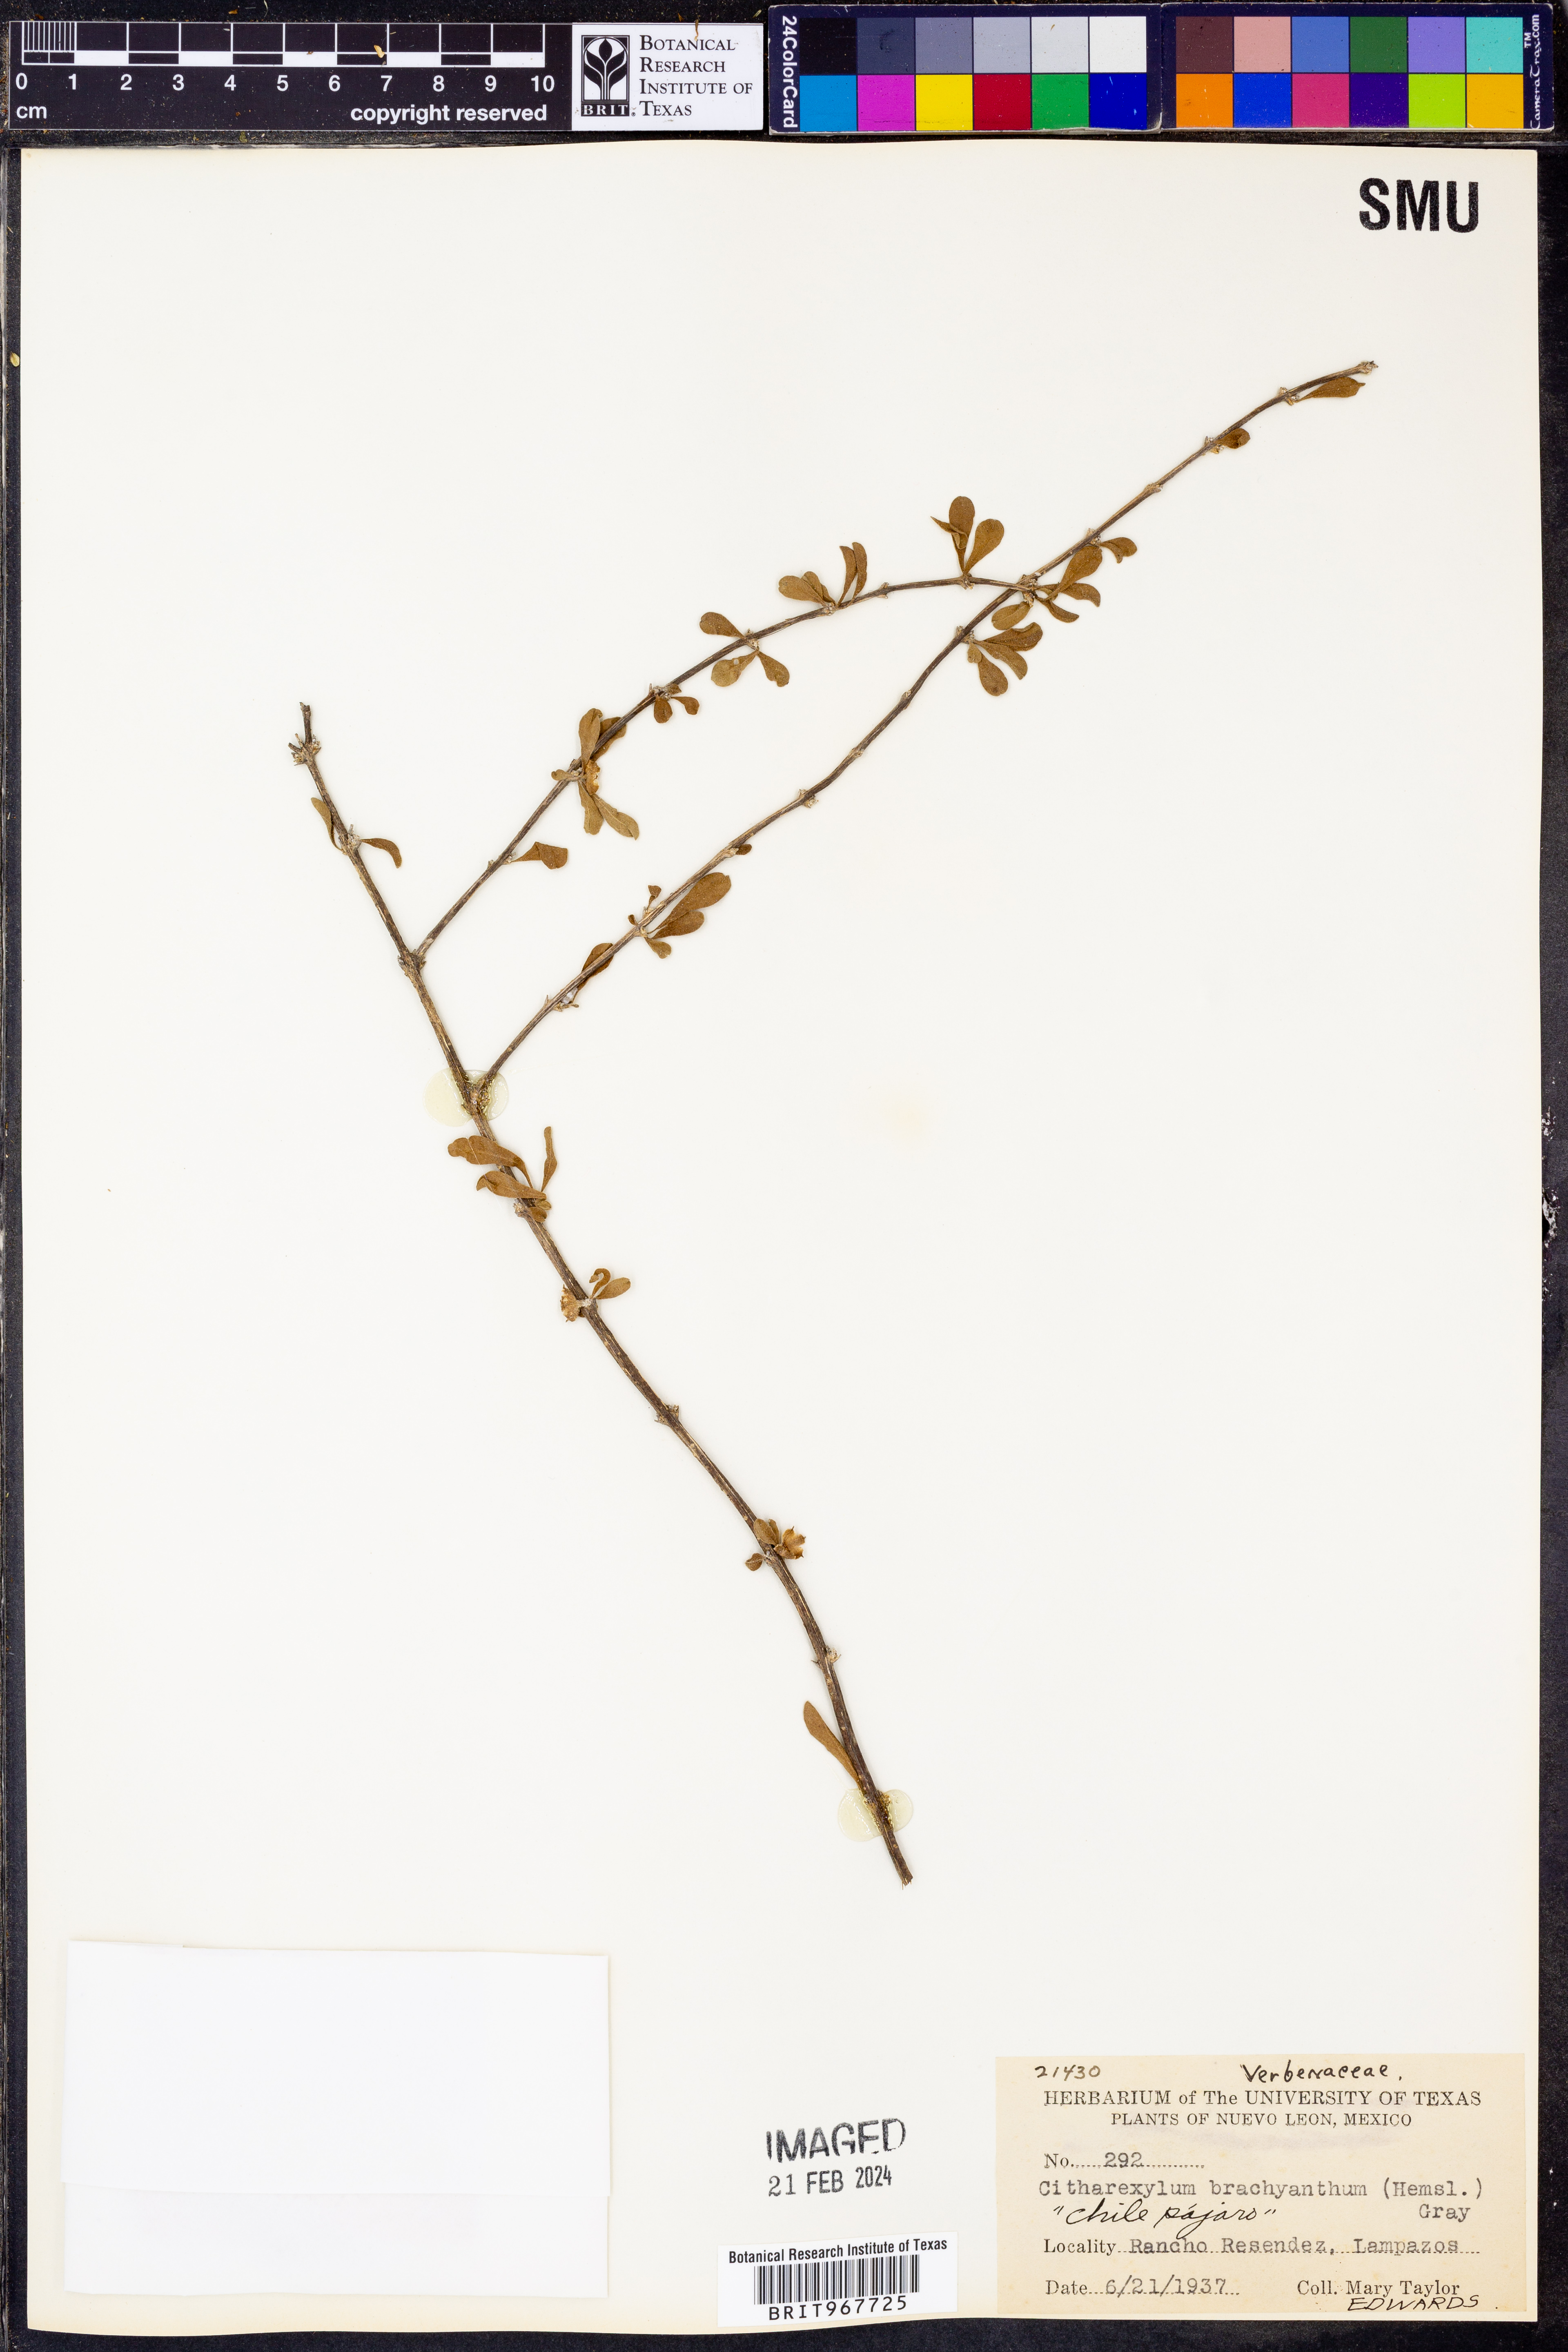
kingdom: Plantae
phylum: Tracheophyta
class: Magnoliopsida
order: Lamiales
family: Verbenaceae
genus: Citharexylum
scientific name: Citharexylum
